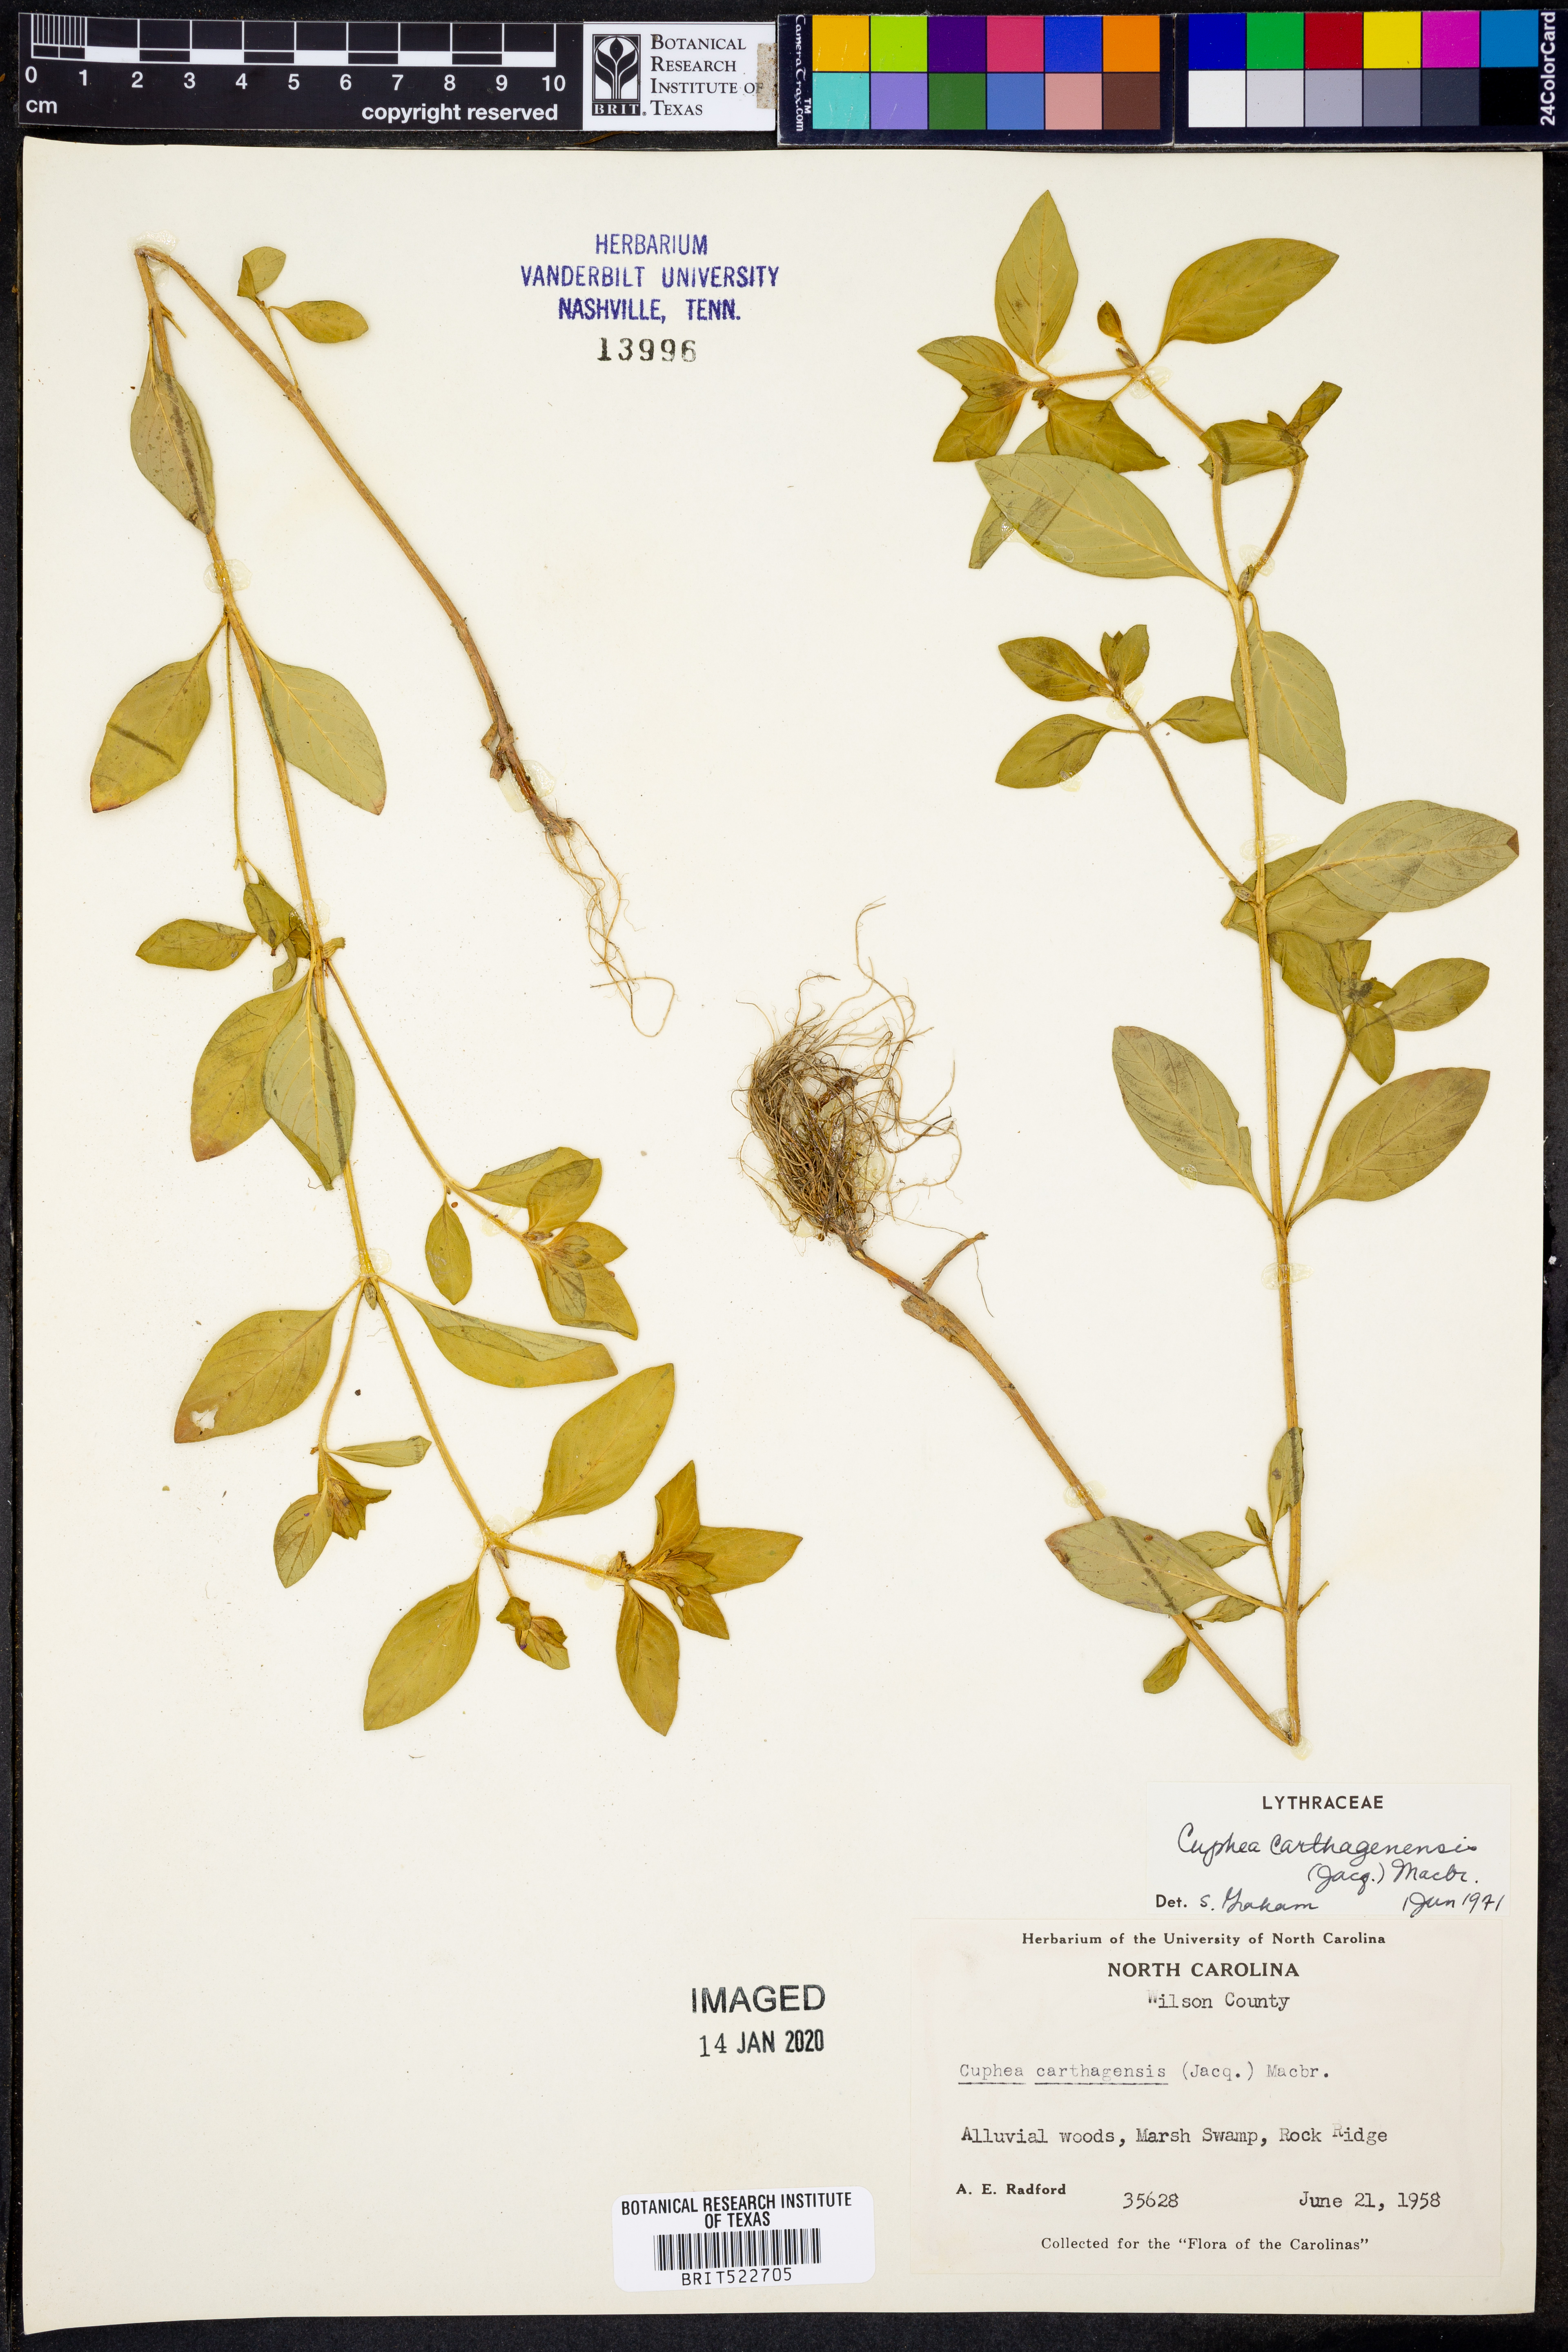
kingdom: Plantae
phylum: Tracheophyta
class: Magnoliopsida
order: Myrtales
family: Lythraceae
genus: Cuphea
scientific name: Cuphea carthagenensis
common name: Colombian waxweed
